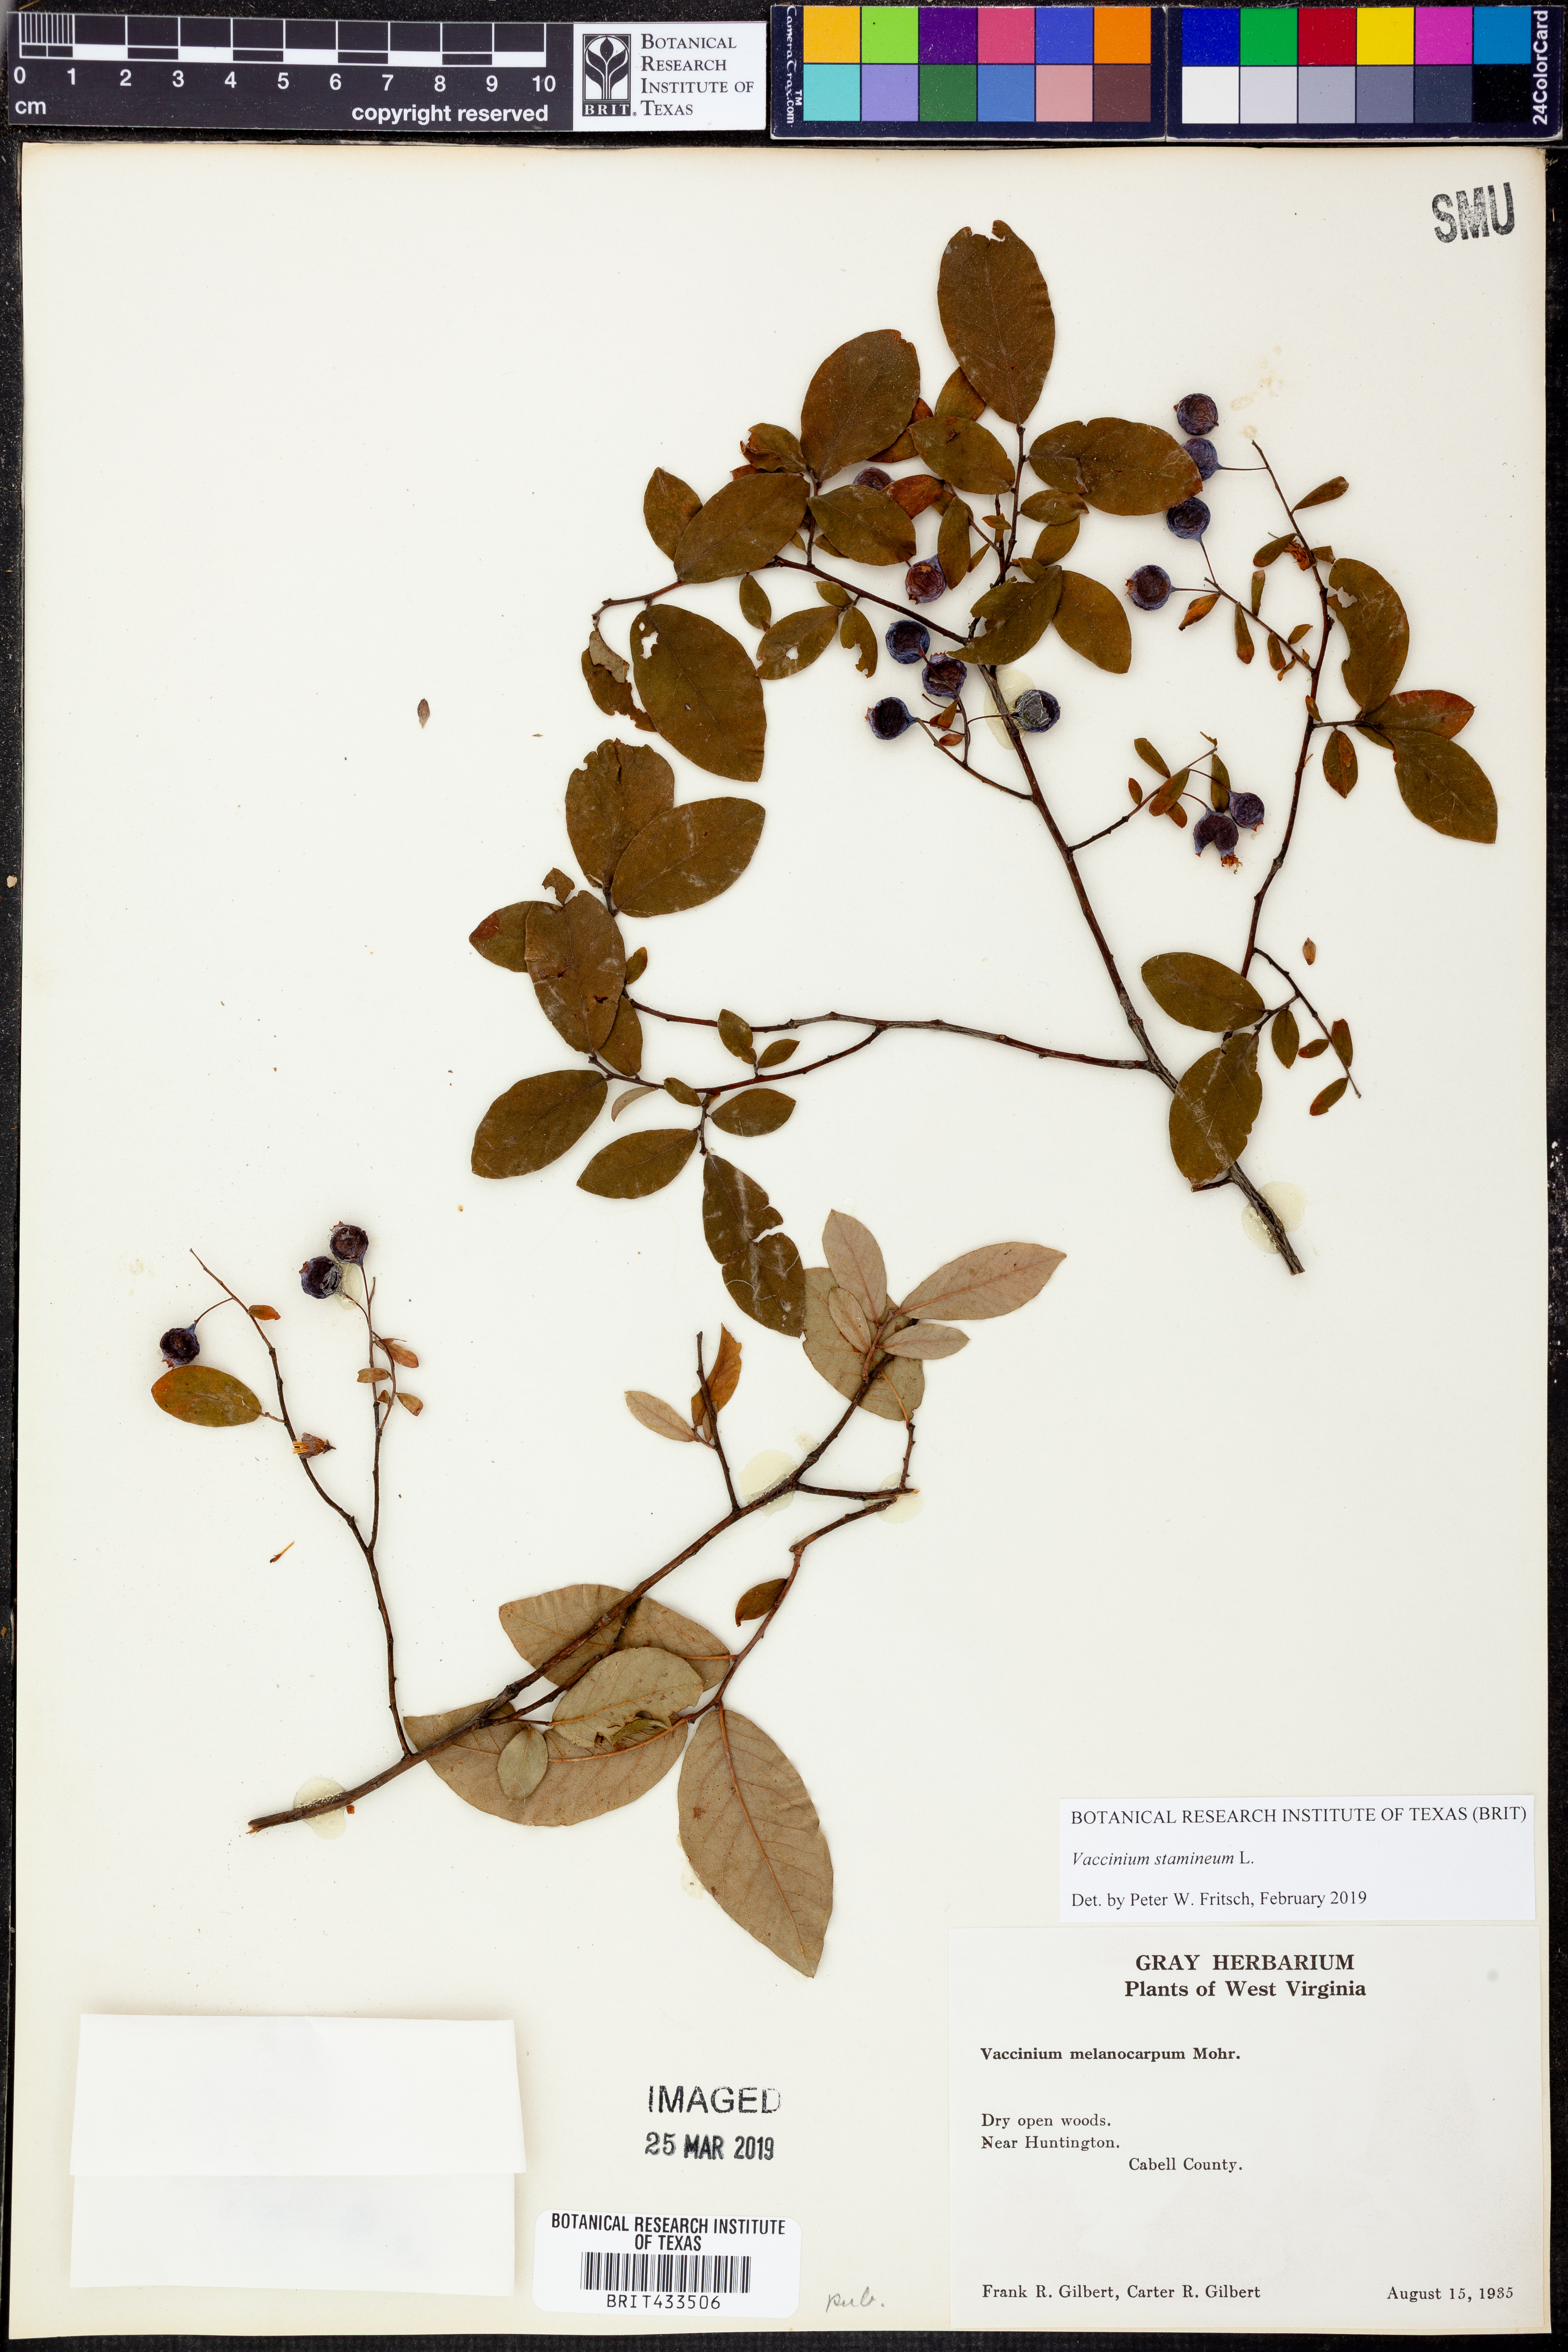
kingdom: Plantae
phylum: Tracheophyta
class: Magnoliopsida
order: Ericales
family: Ericaceae
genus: Vaccinium
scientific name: Vaccinium stamineum
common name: Deerberry
